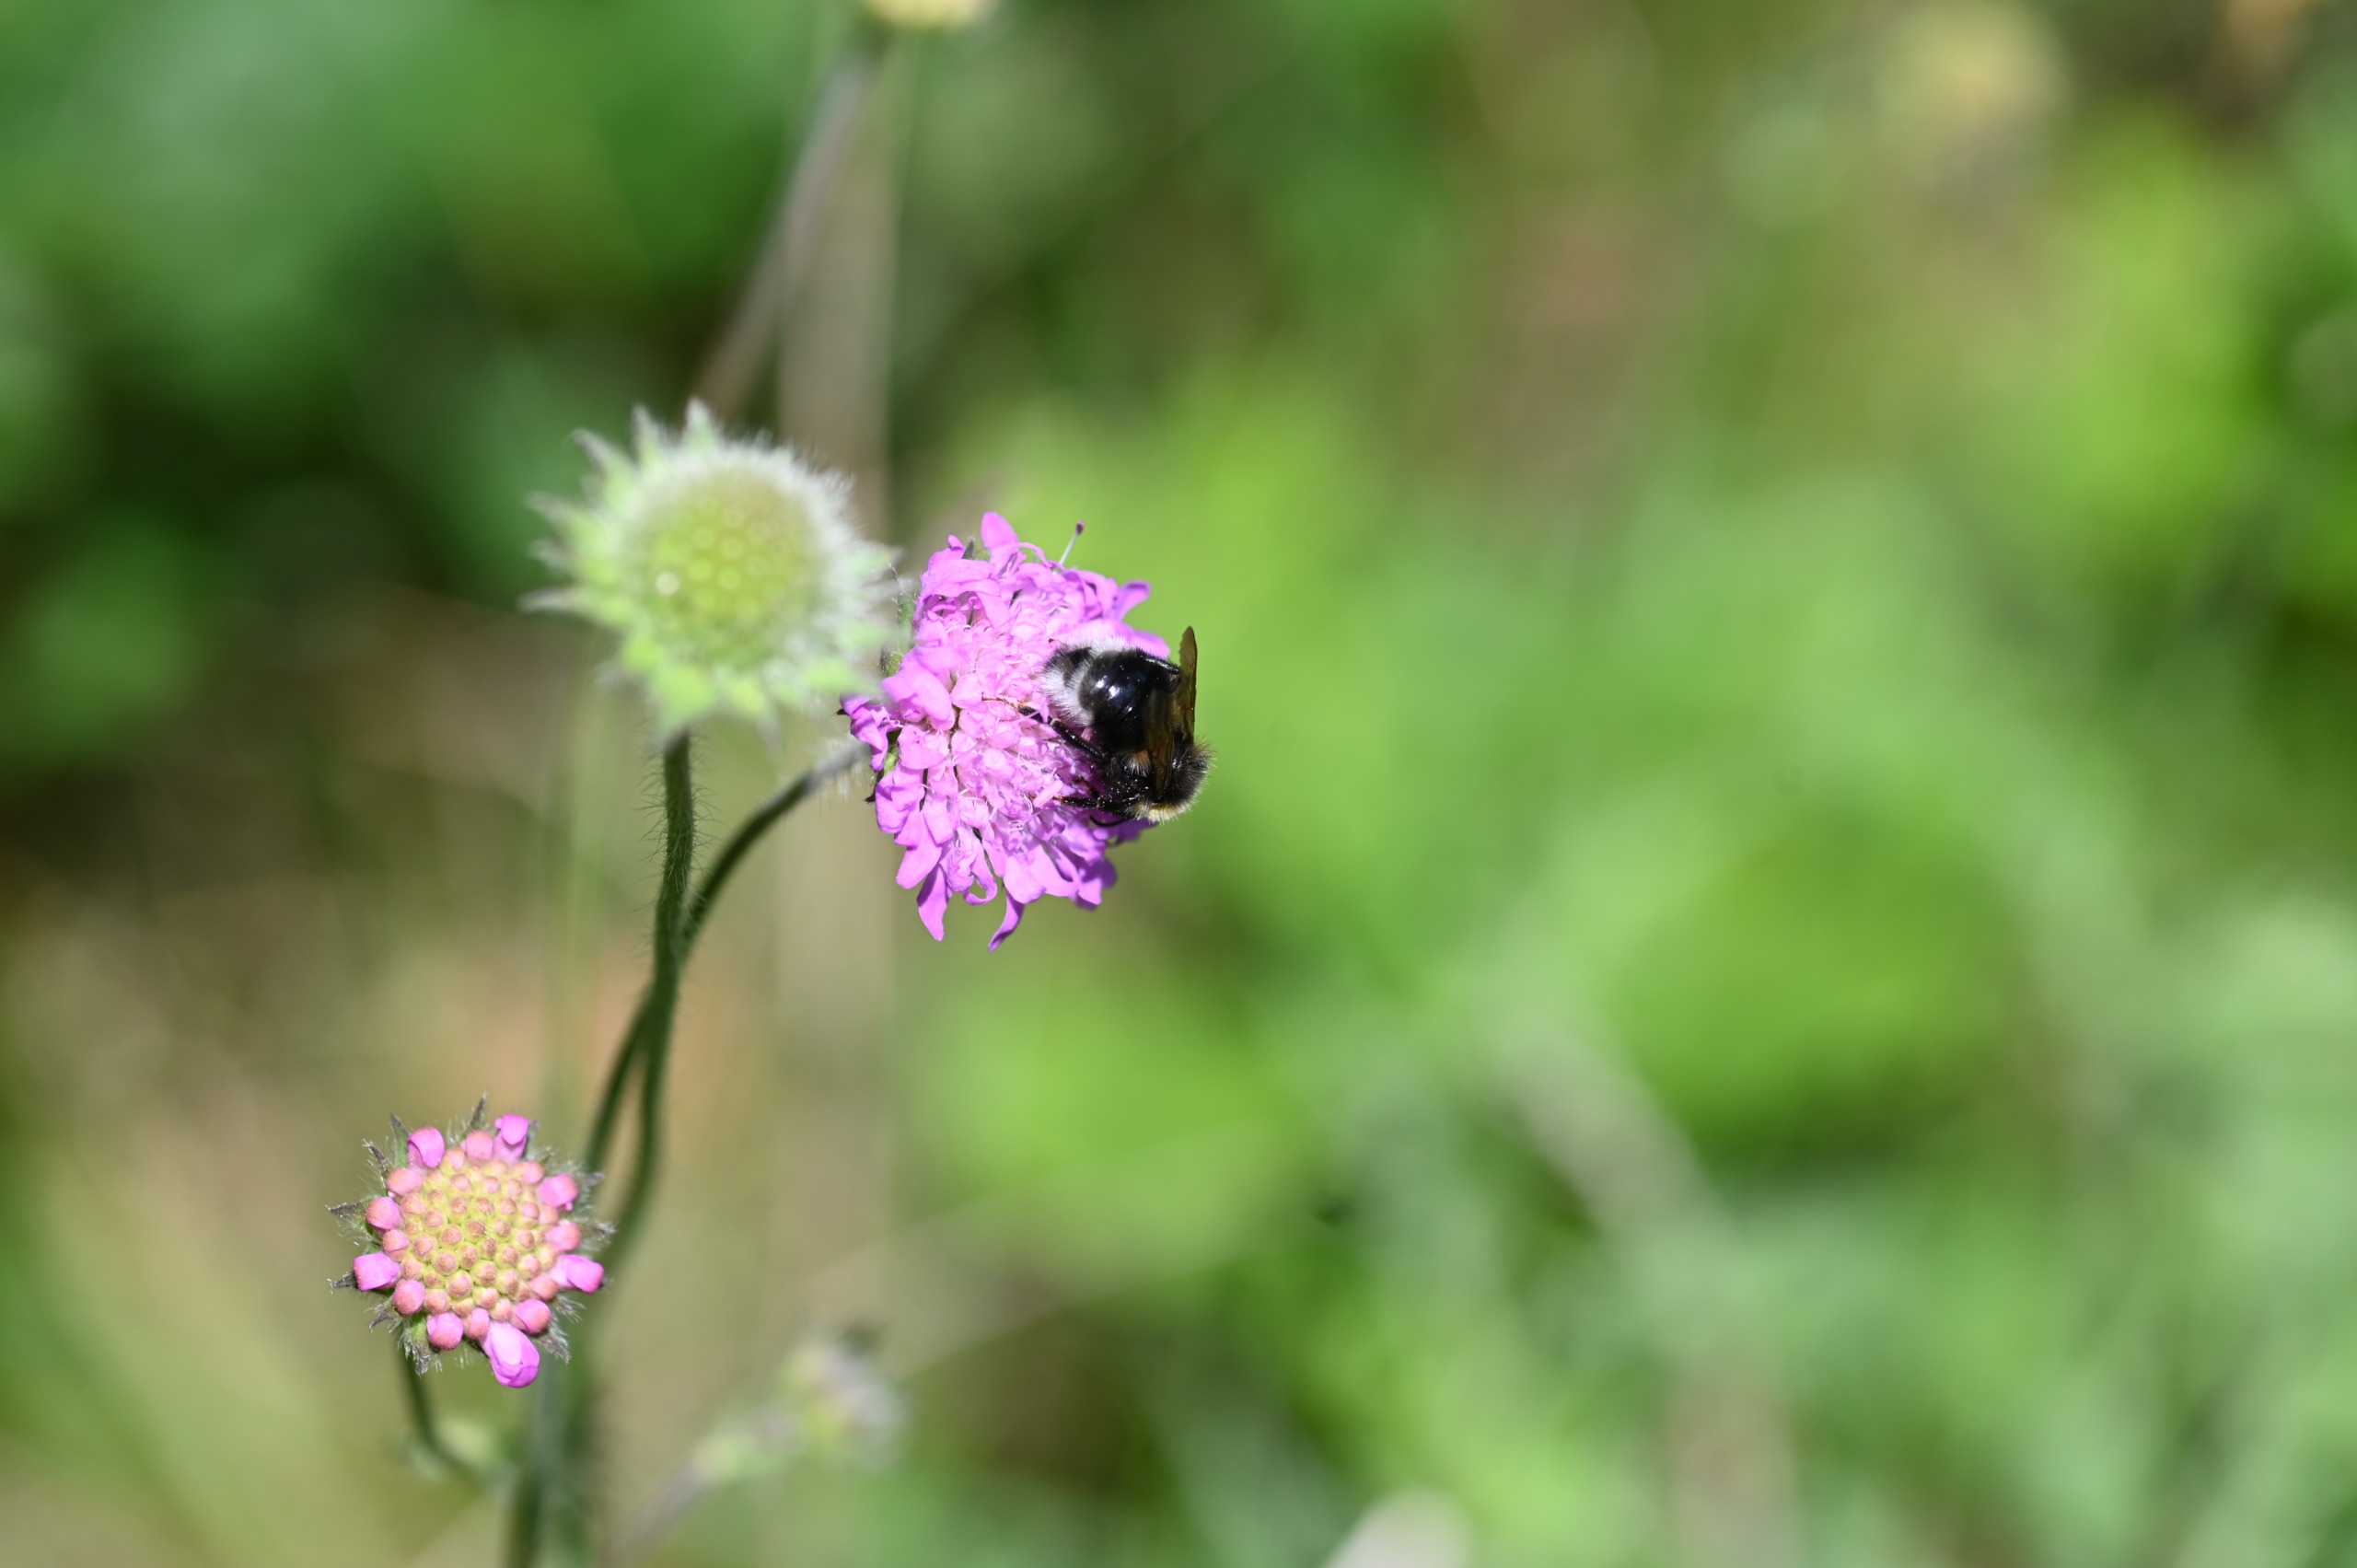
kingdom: Plantae
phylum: Tracheophyta
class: Magnoliopsida
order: Dipsacales
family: Caprifoliaceae
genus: Knautia
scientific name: Knautia arvensis
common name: Blåhat
